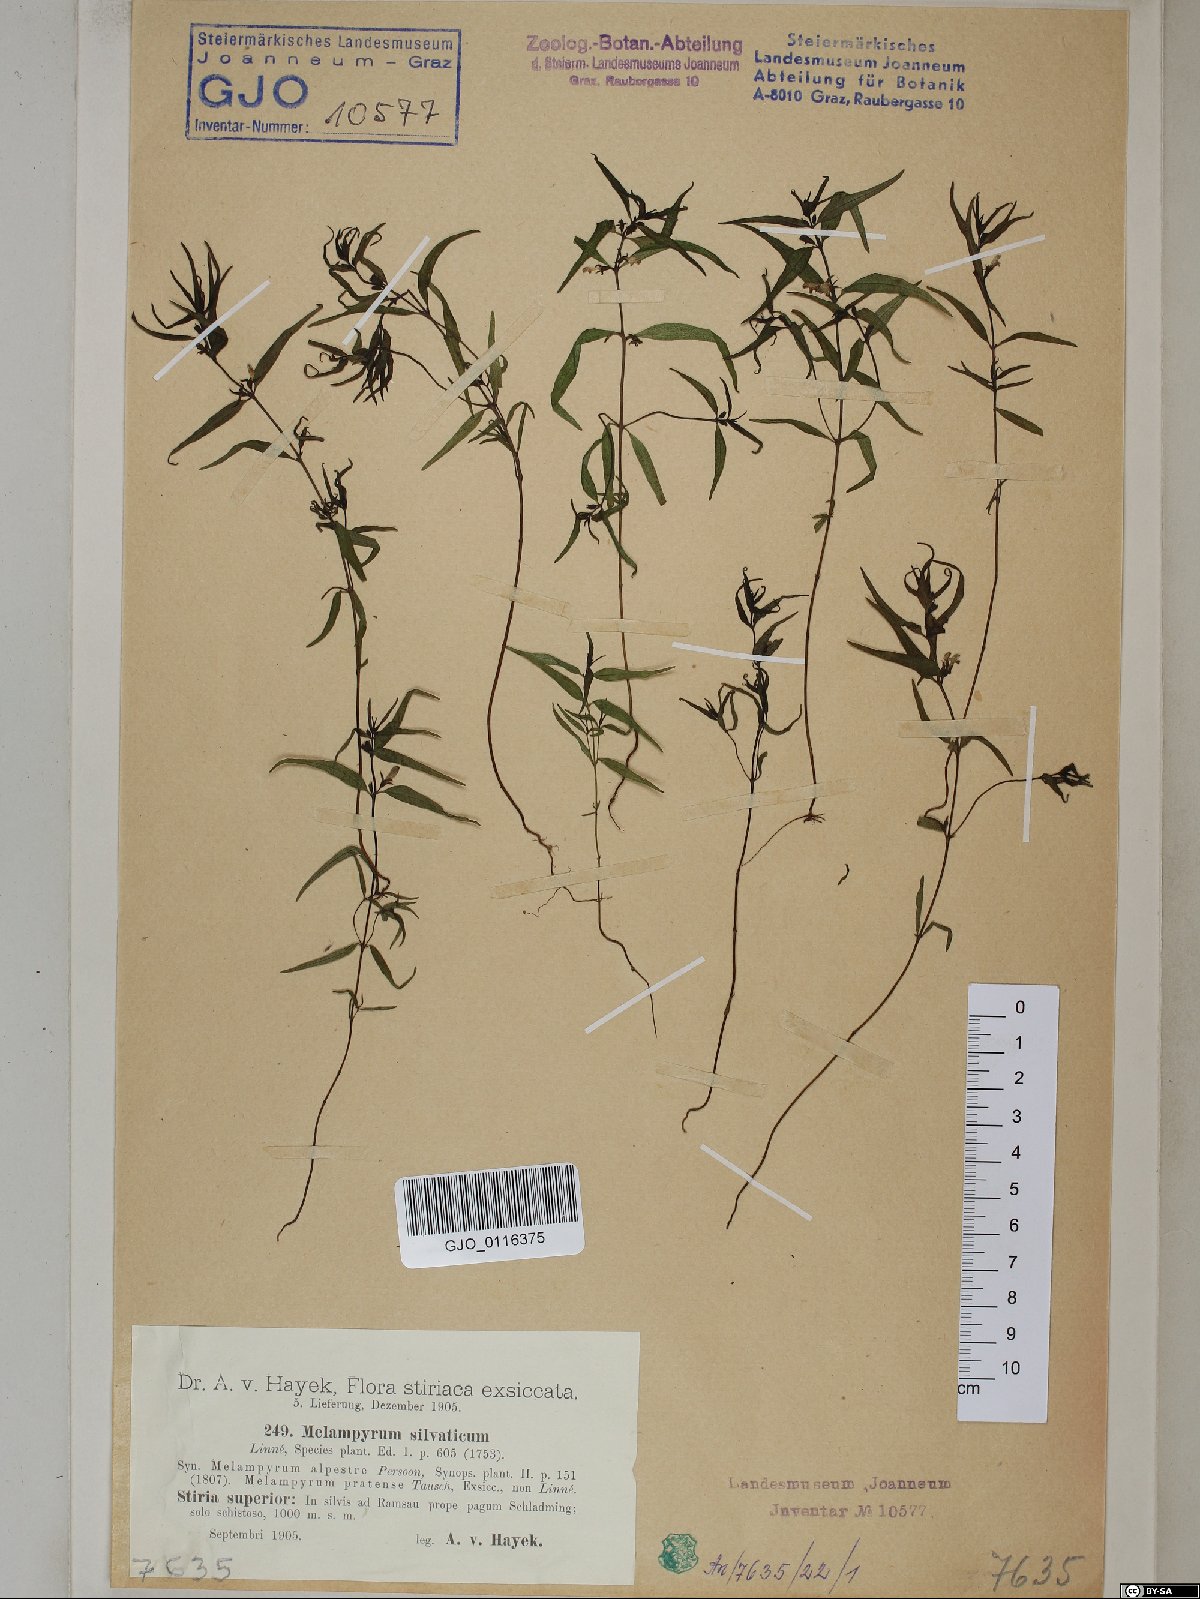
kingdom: Plantae
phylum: Tracheophyta
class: Magnoliopsida
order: Lamiales
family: Orobanchaceae
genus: Melampyrum
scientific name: Melampyrum sylvaticum
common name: Small cow-wheat
